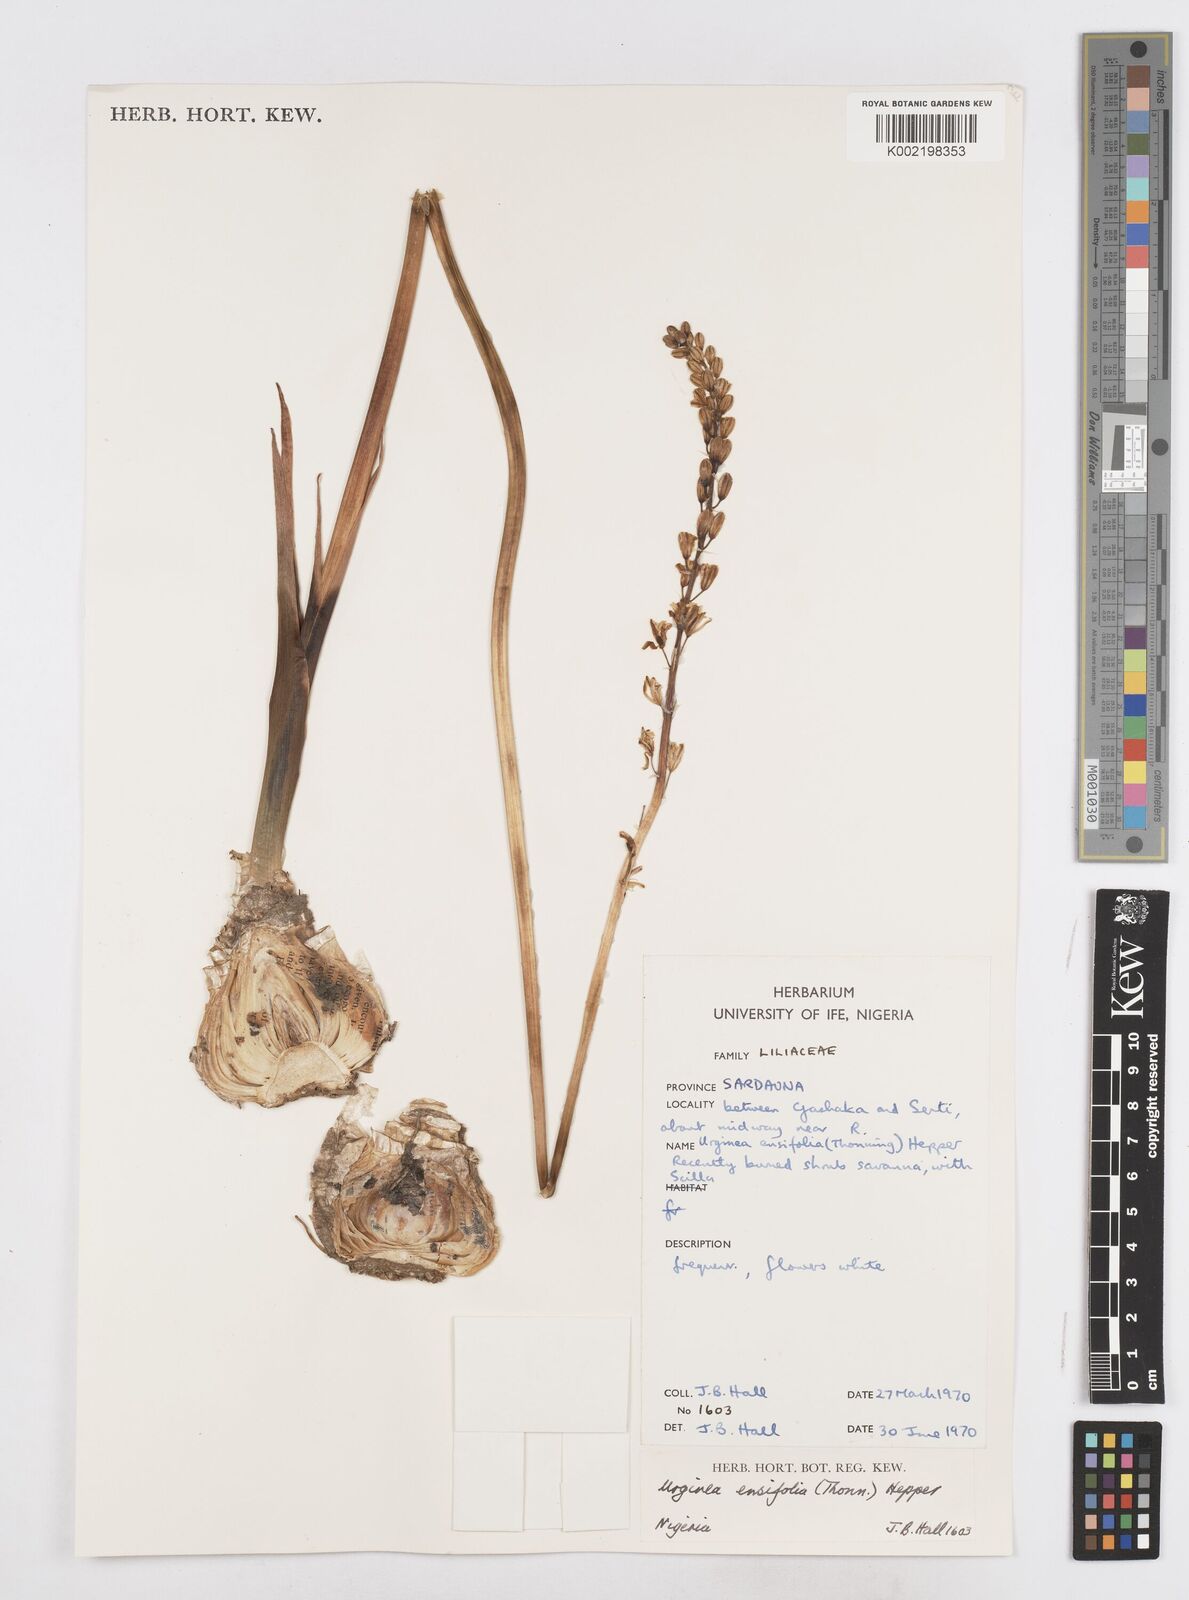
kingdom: Plantae
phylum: Tracheophyta
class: Liliopsida
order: Asparagales
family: Asparagaceae
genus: Ledebouria
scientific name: Ledebouria ensifolia
